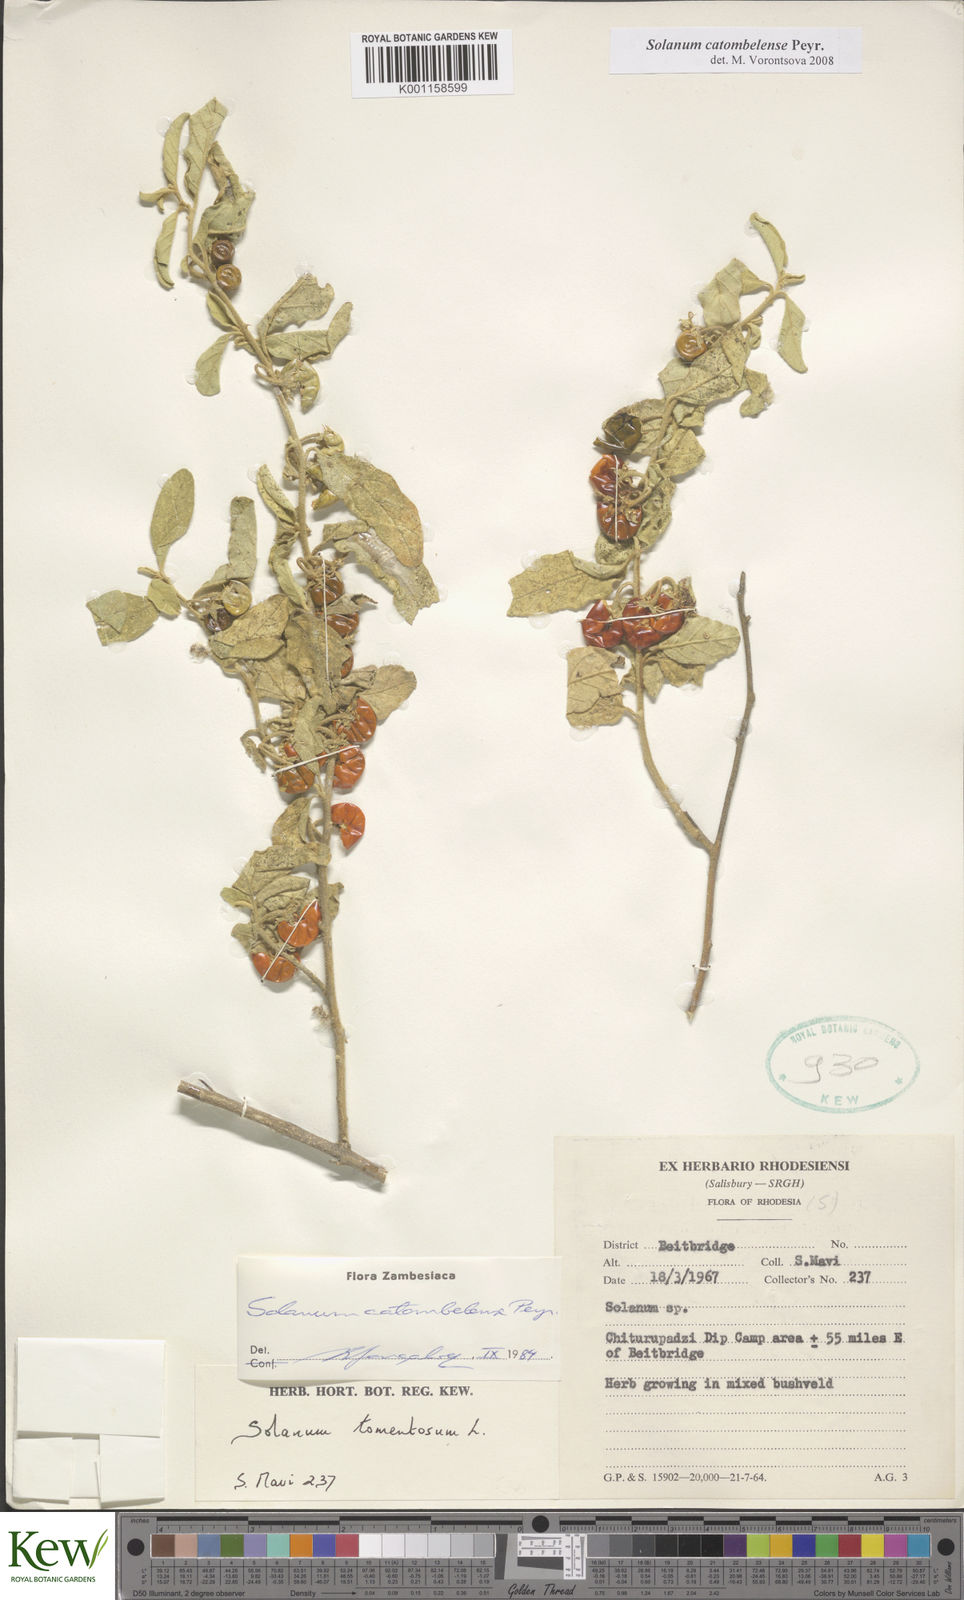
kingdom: Plantae
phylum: Tracheophyta
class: Magnoliopsida
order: Solanales
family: Solanaceae
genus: Solanum
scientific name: Solanum catombelense
